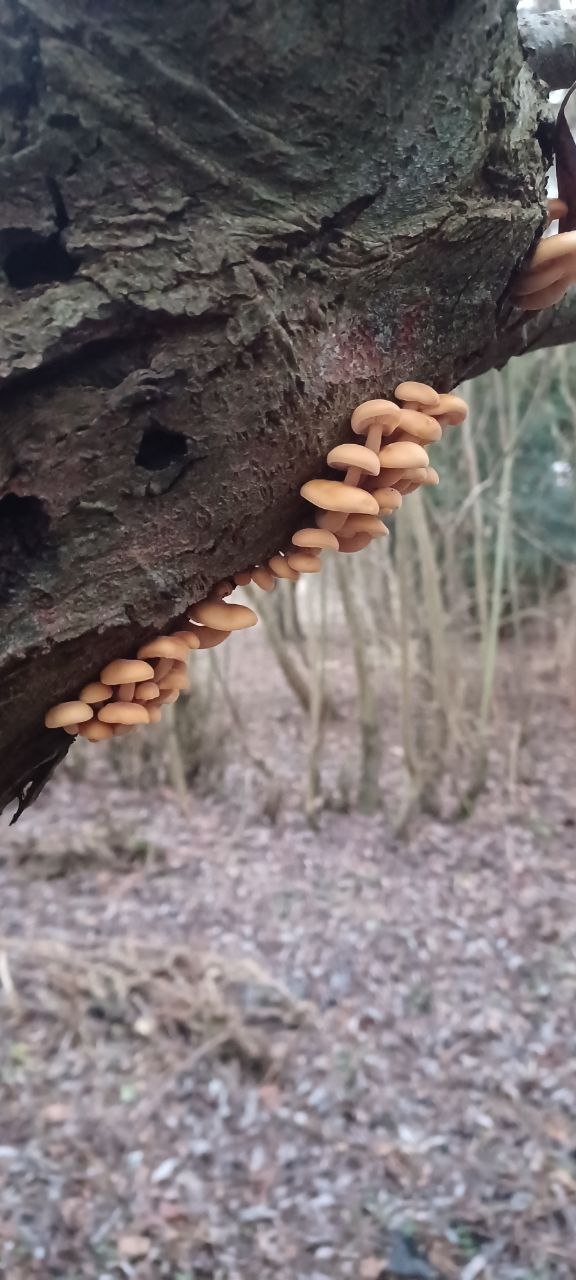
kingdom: Fungi
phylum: Basidiomycota
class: Agaricomycetes
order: Agaricales
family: Physalacriaceae
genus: Flammulina
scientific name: Flammulina
